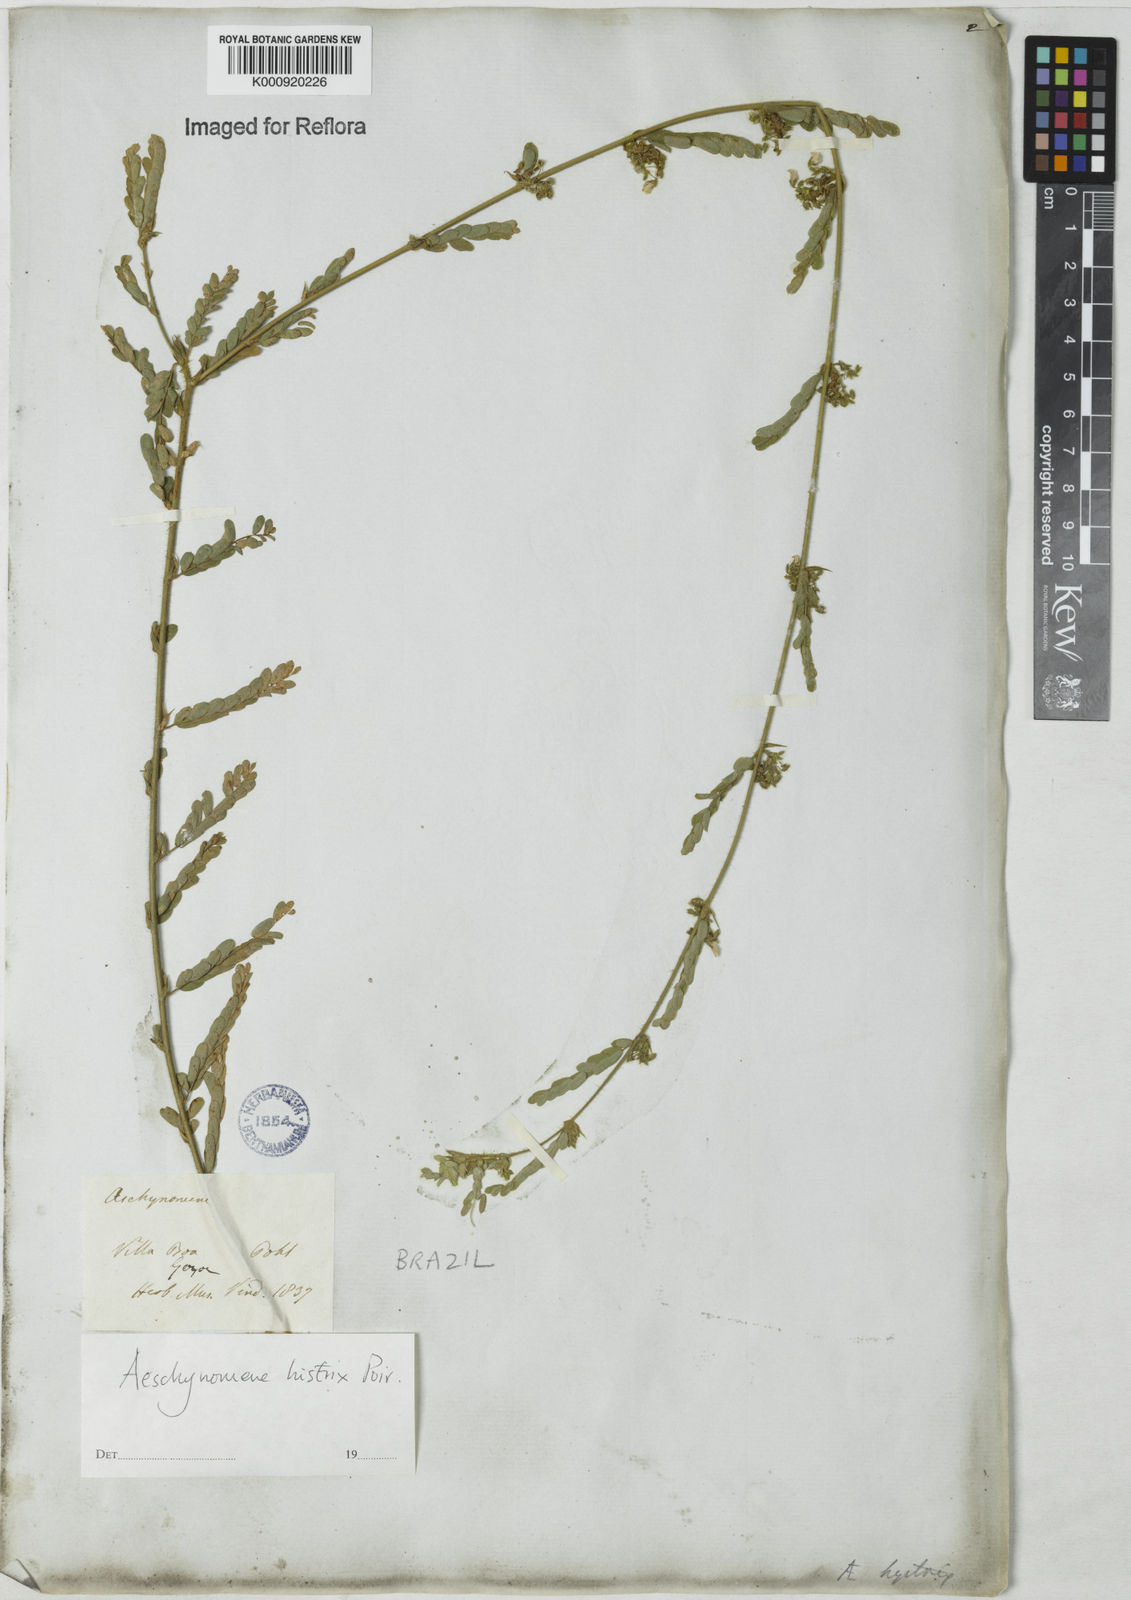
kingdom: Plantae
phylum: Tracheophyta
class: Magnoliopsida
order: Fabales
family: Fabaceae
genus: Ctenodon
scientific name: Ctenodon histrix
